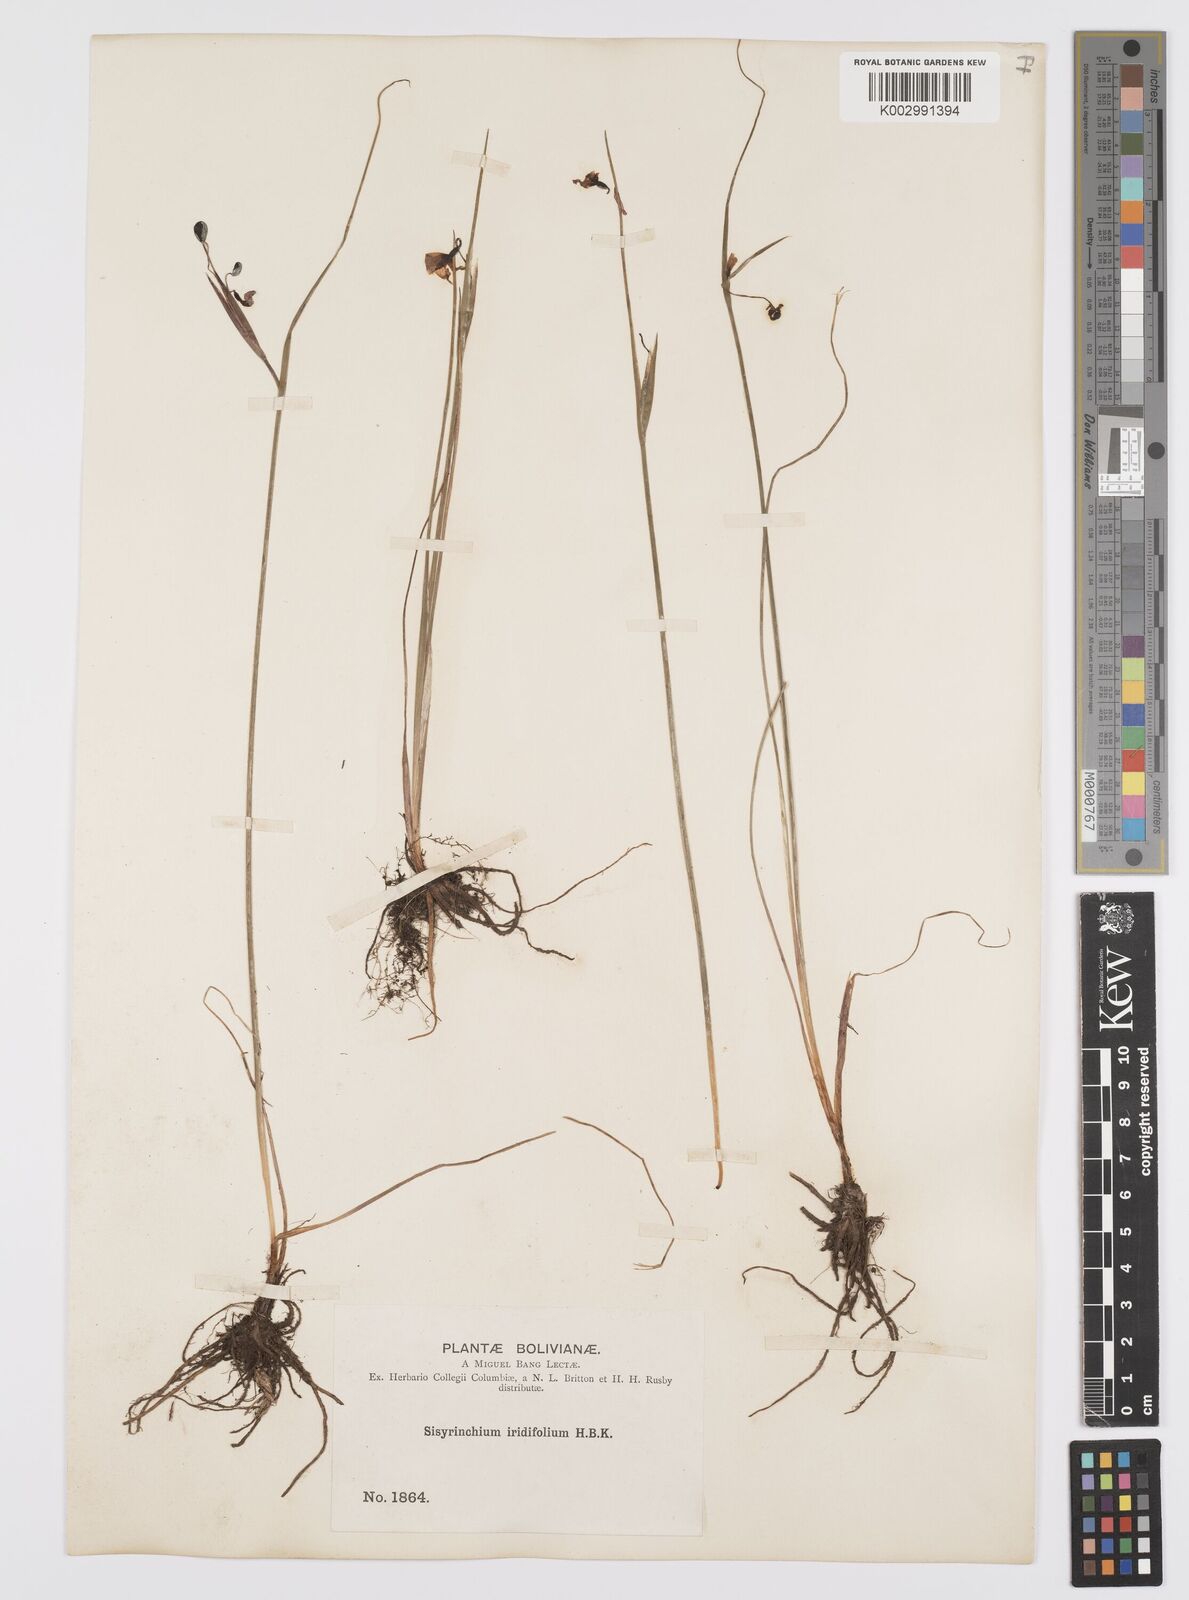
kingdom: Plantae
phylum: Tracheophyta
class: Liliopsida
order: Asparagales
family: Iridaceae
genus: Olsynium
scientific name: Olsynium junceum
